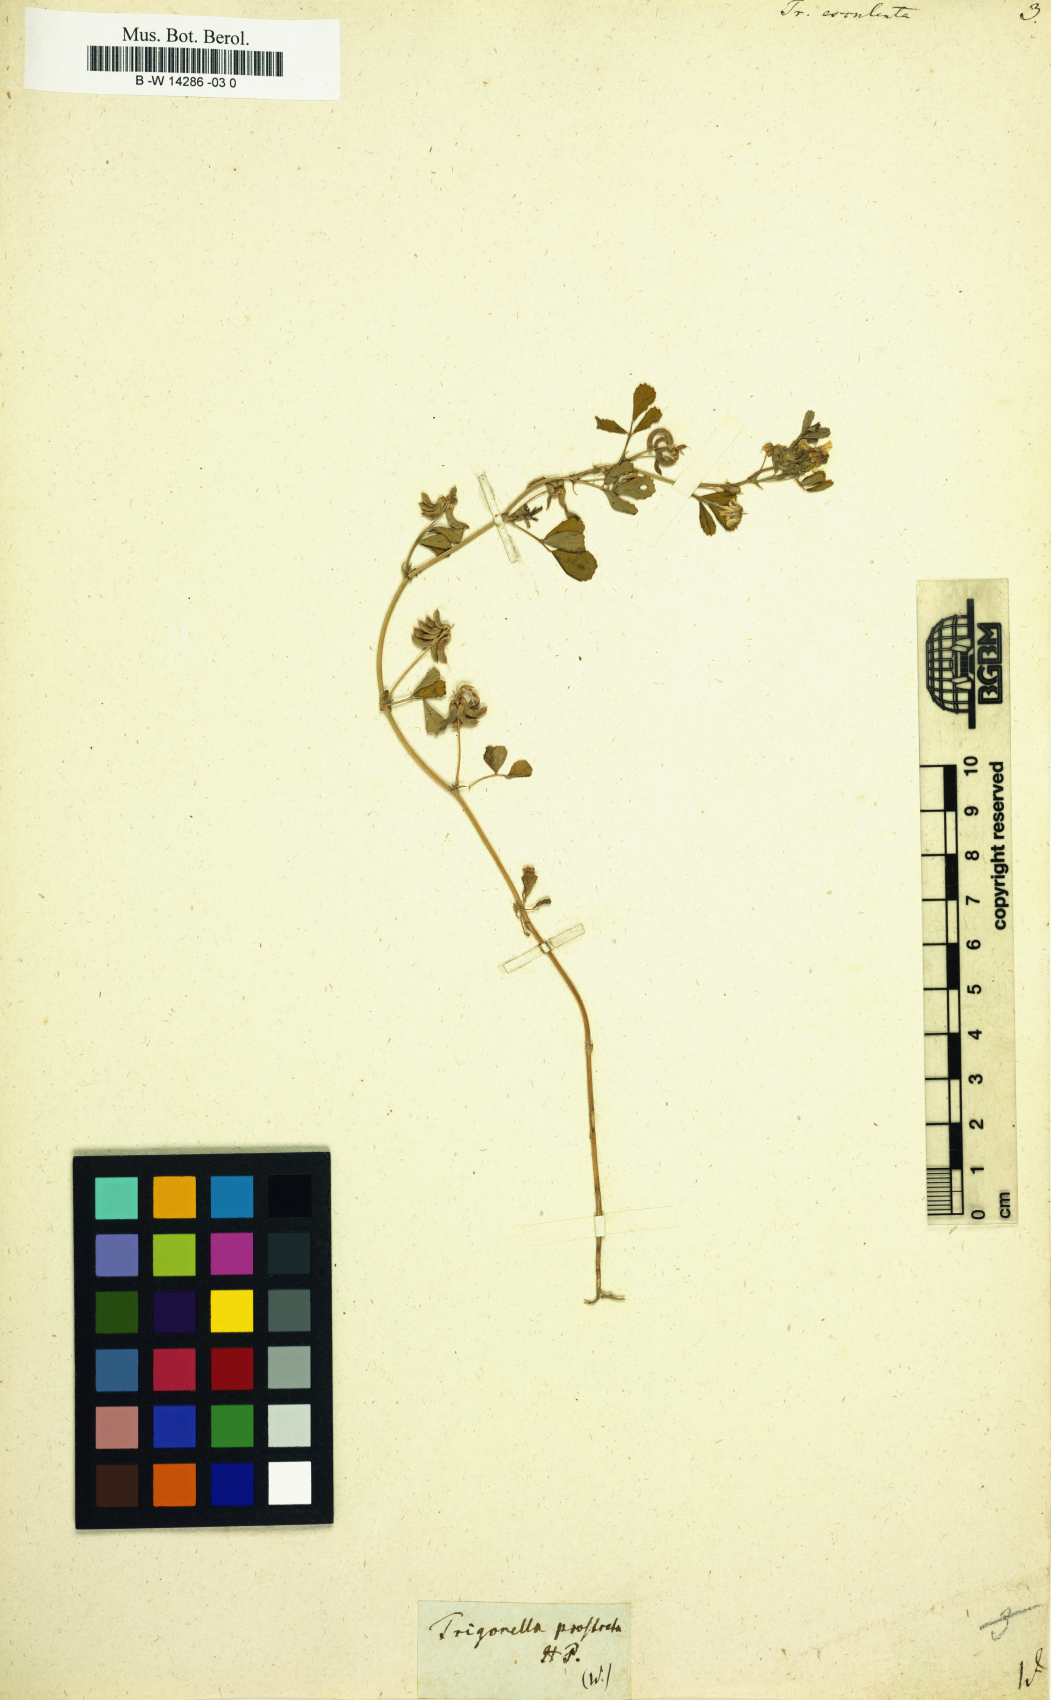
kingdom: Plantae
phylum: Tracheophyta
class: Magnoliopsida
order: Fabales
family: Fabaceae
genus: Trigonella
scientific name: Trigonella esculenta
